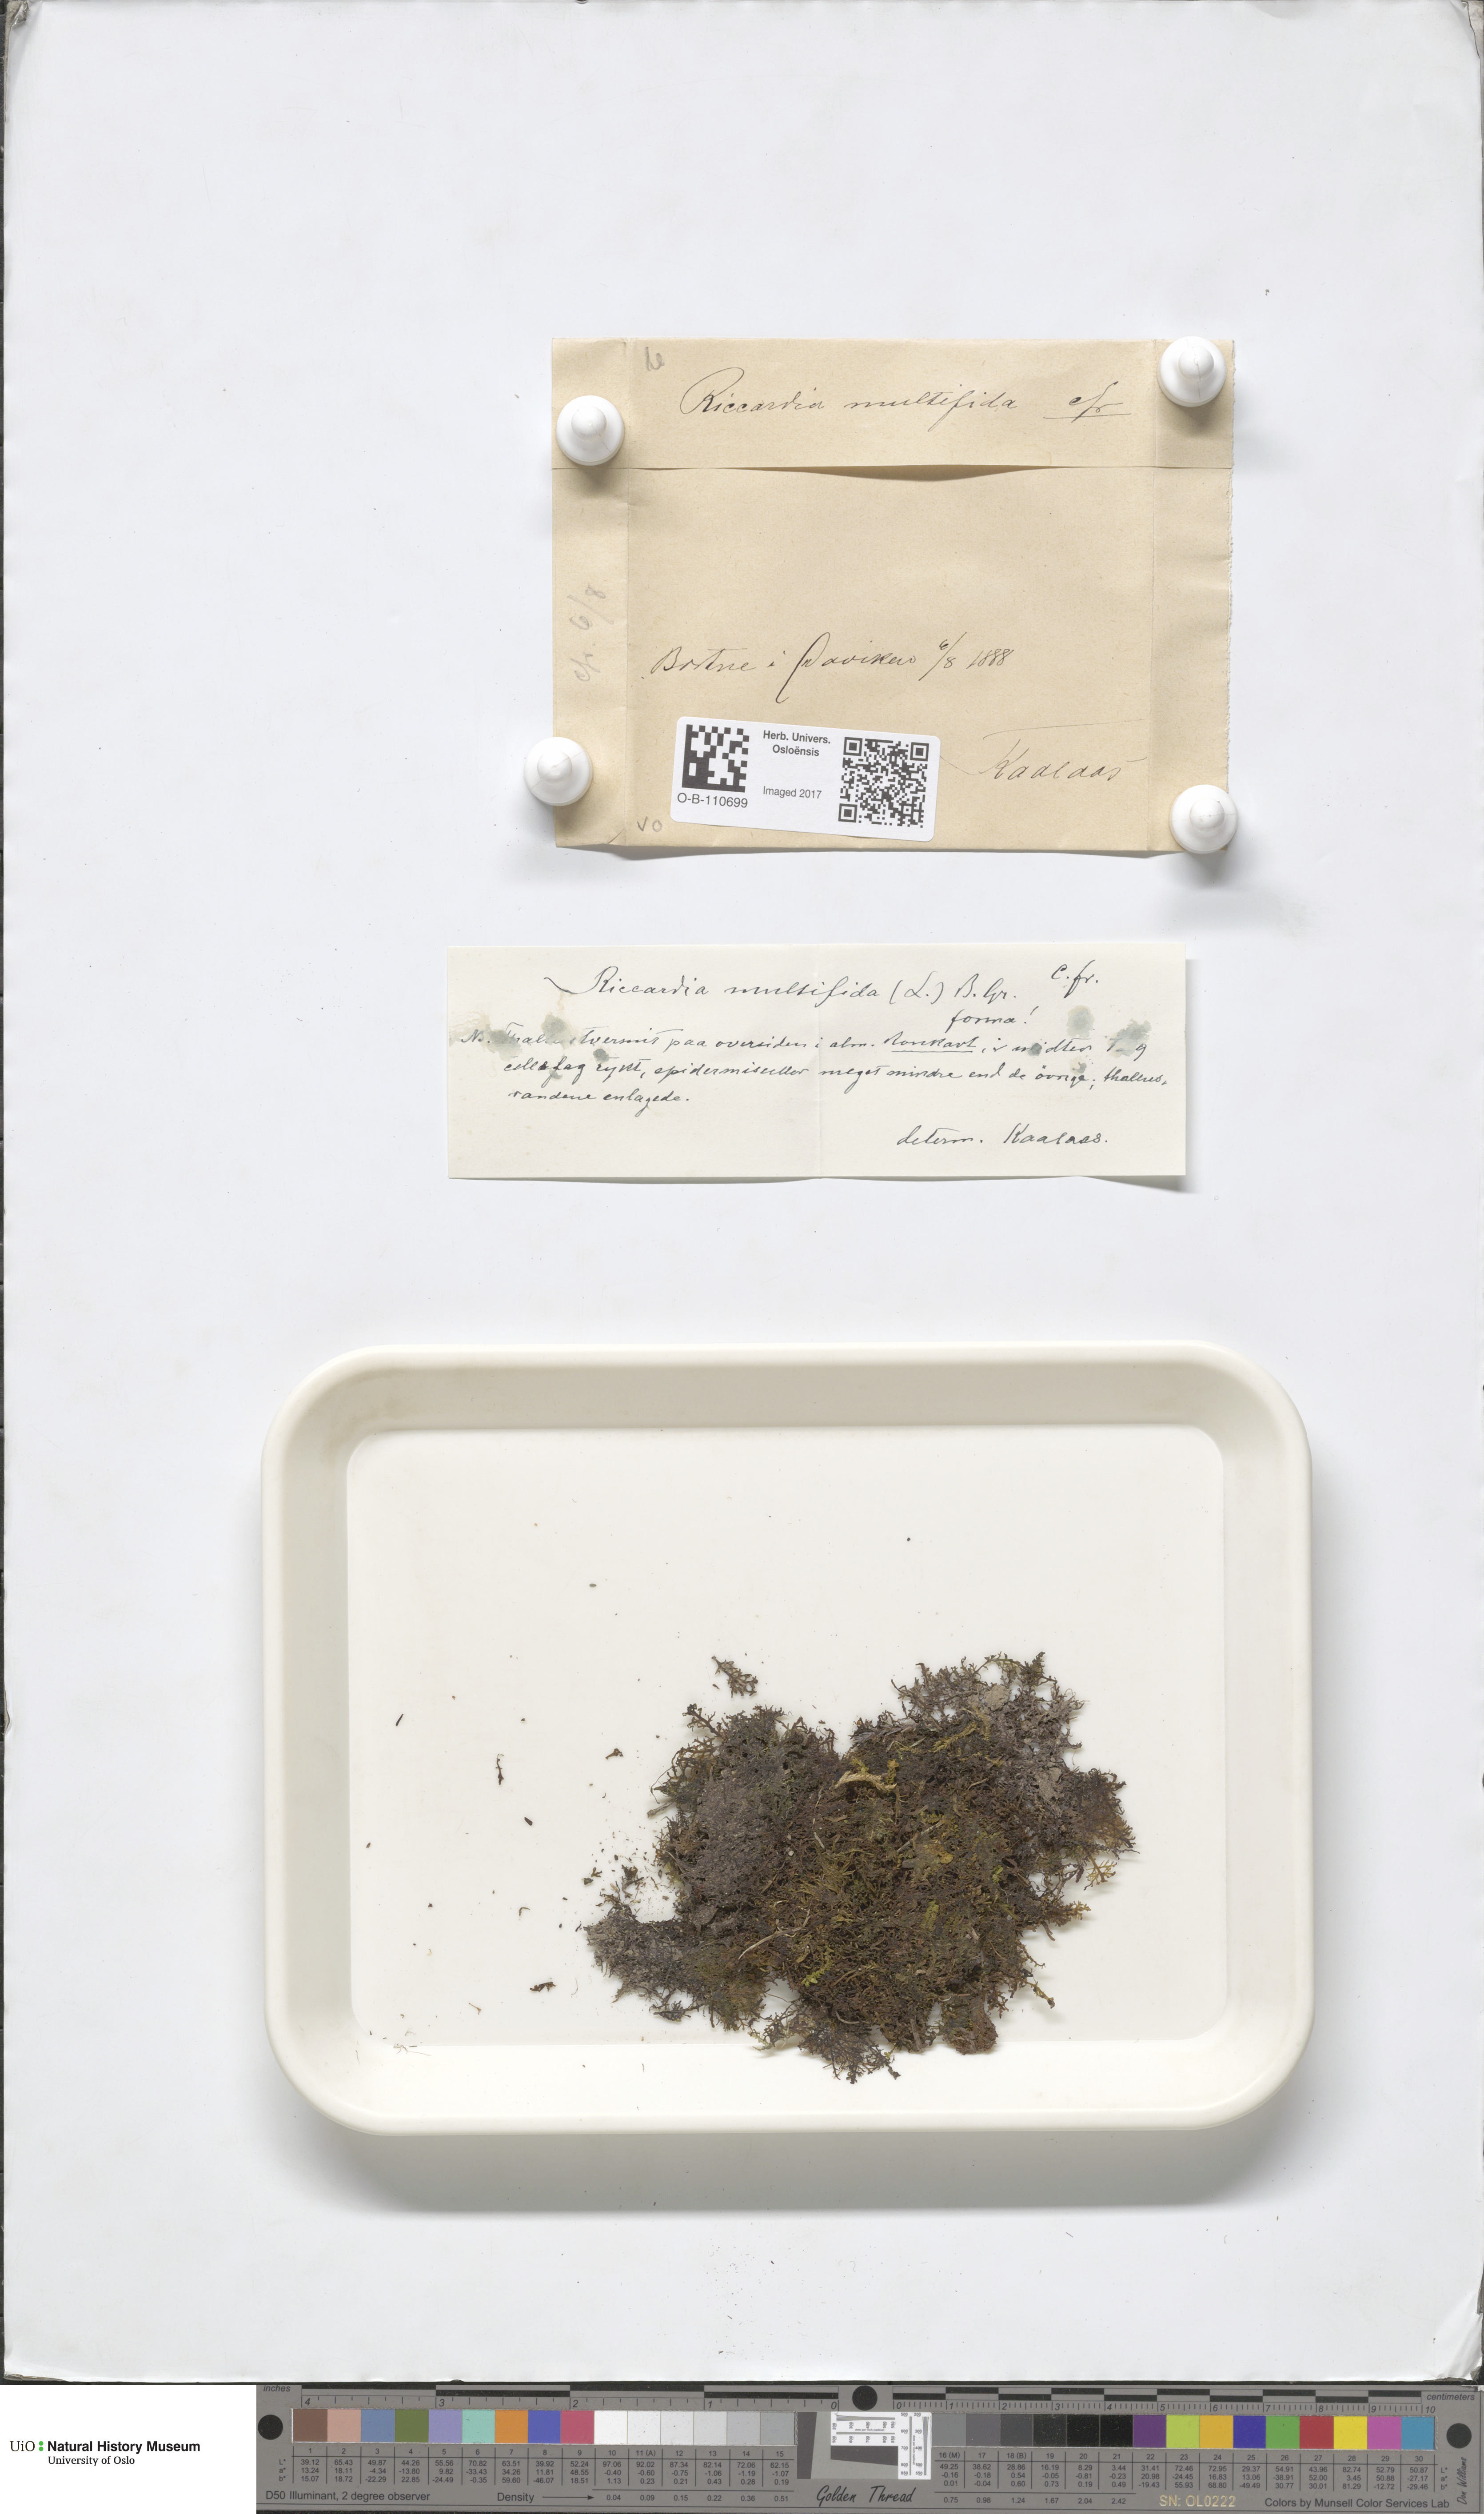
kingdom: Plantae
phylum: Marchantiophyta
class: Jungermanniopsida
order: Metzgeriales
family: Aneuraceae
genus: Riccardia
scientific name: Riccardia palmata
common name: Palmate germanderwort
